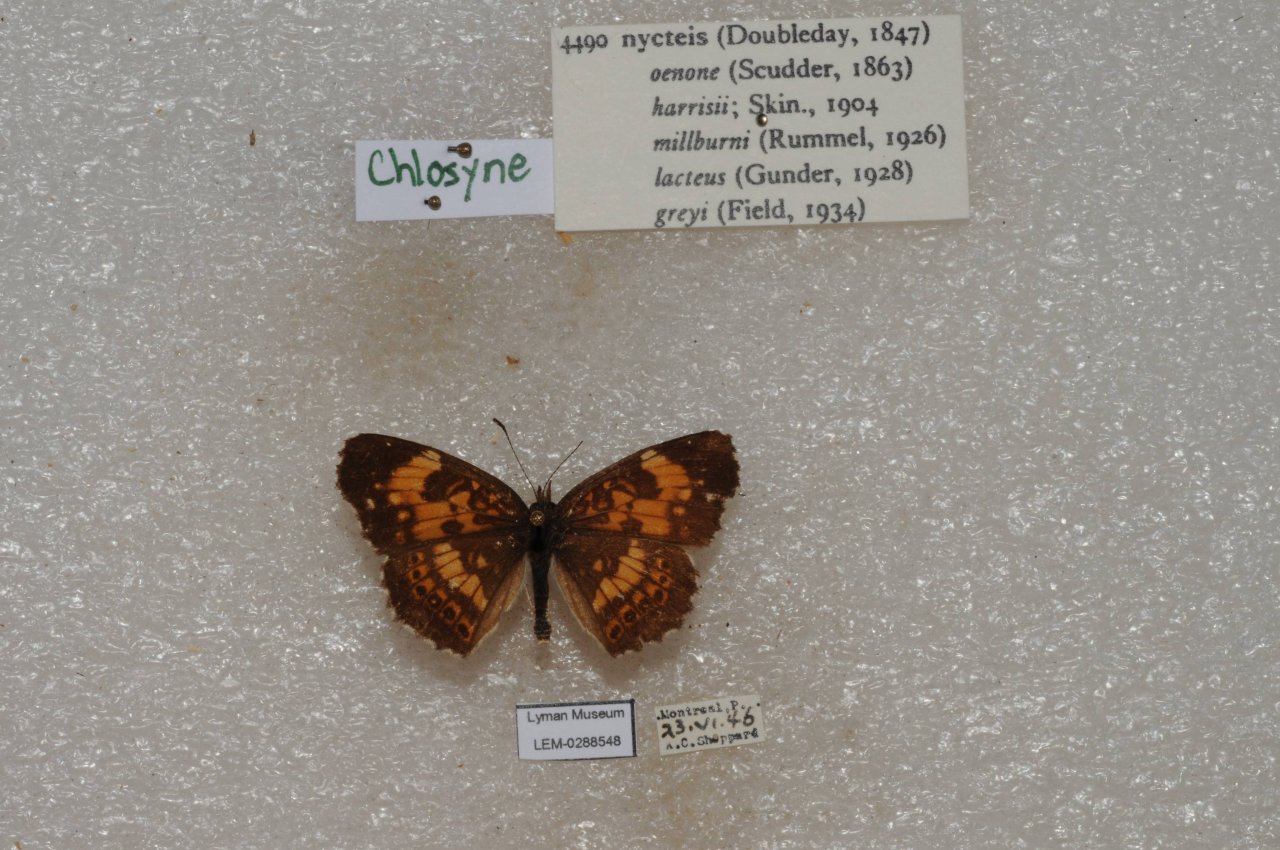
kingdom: Animalia
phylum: Arthropoda
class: Insecta
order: Lepidoptera
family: Nymphalidae
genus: Chlosyne
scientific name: Chlosyne nycteis
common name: Silvery Checkerspot
